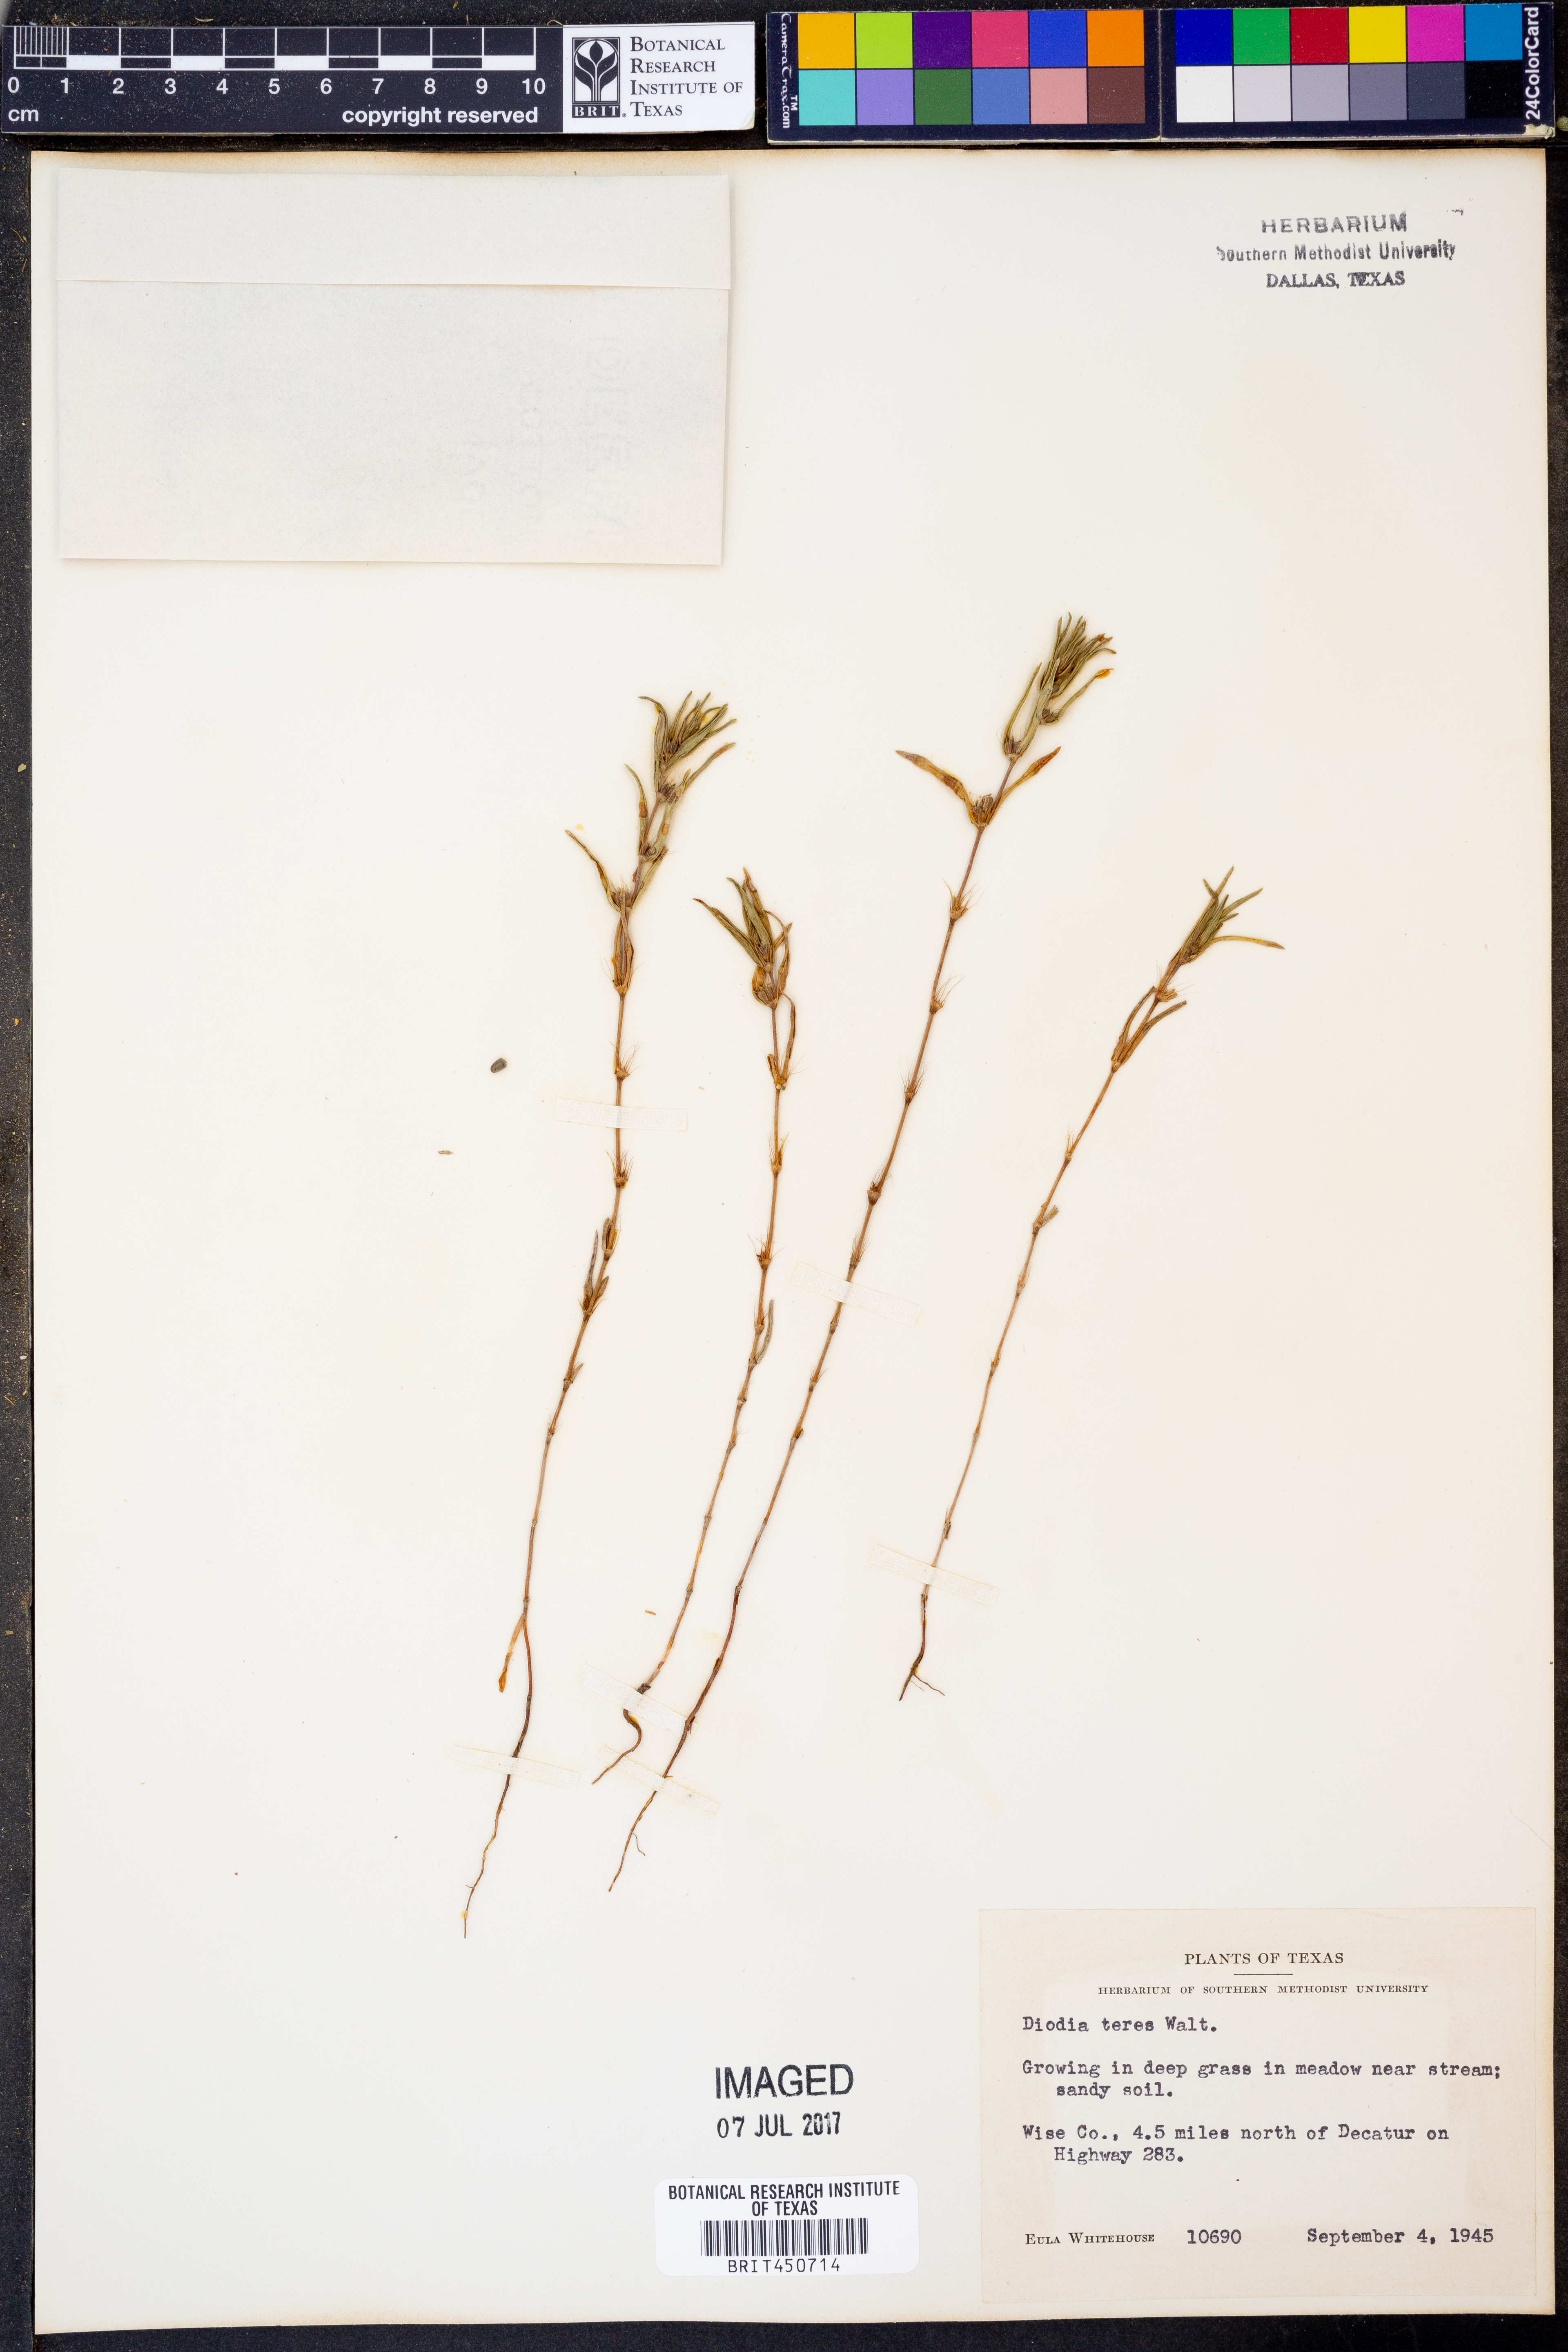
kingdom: Plantae
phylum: Tracheophyta
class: Magnoliopsida
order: Gentianales
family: Rubiaceae
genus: Hexasepalum
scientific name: Hexasepalum teres
